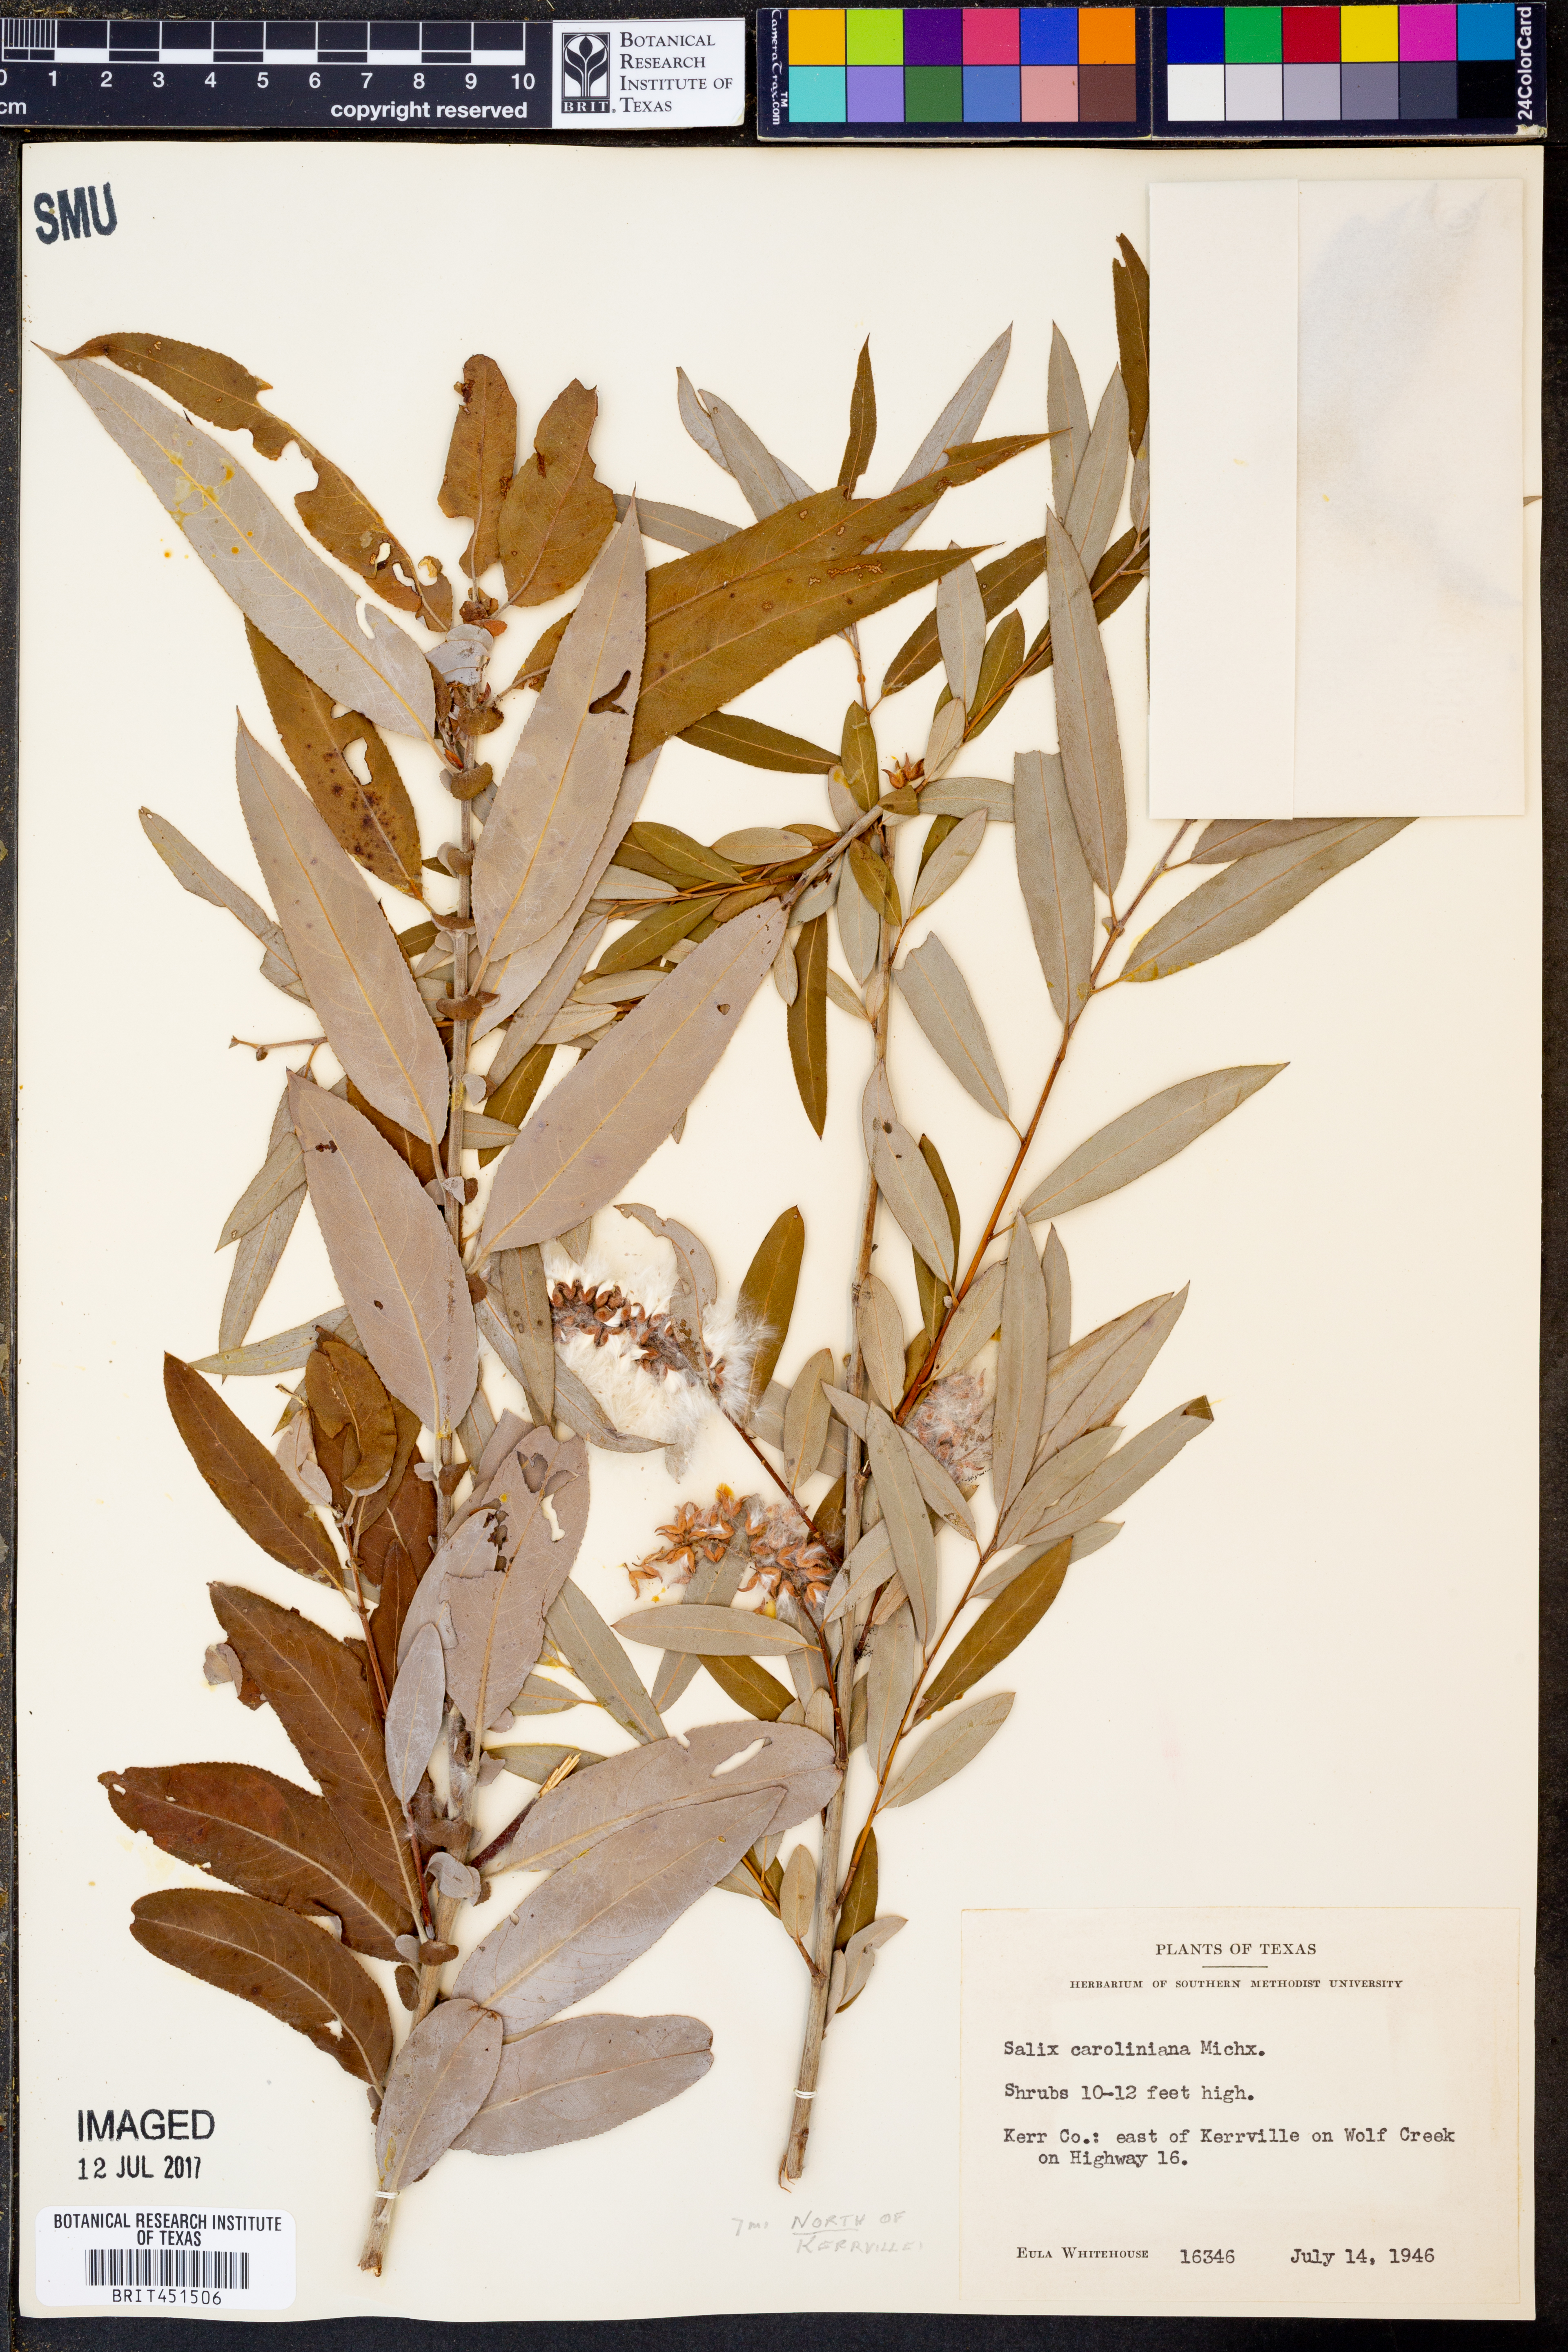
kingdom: Plantae
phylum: Tracheophyta
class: Magnoliopsida
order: Malpighiales
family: Salicaceae
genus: Salix
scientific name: Salix caroliniana
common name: Carolina willow
